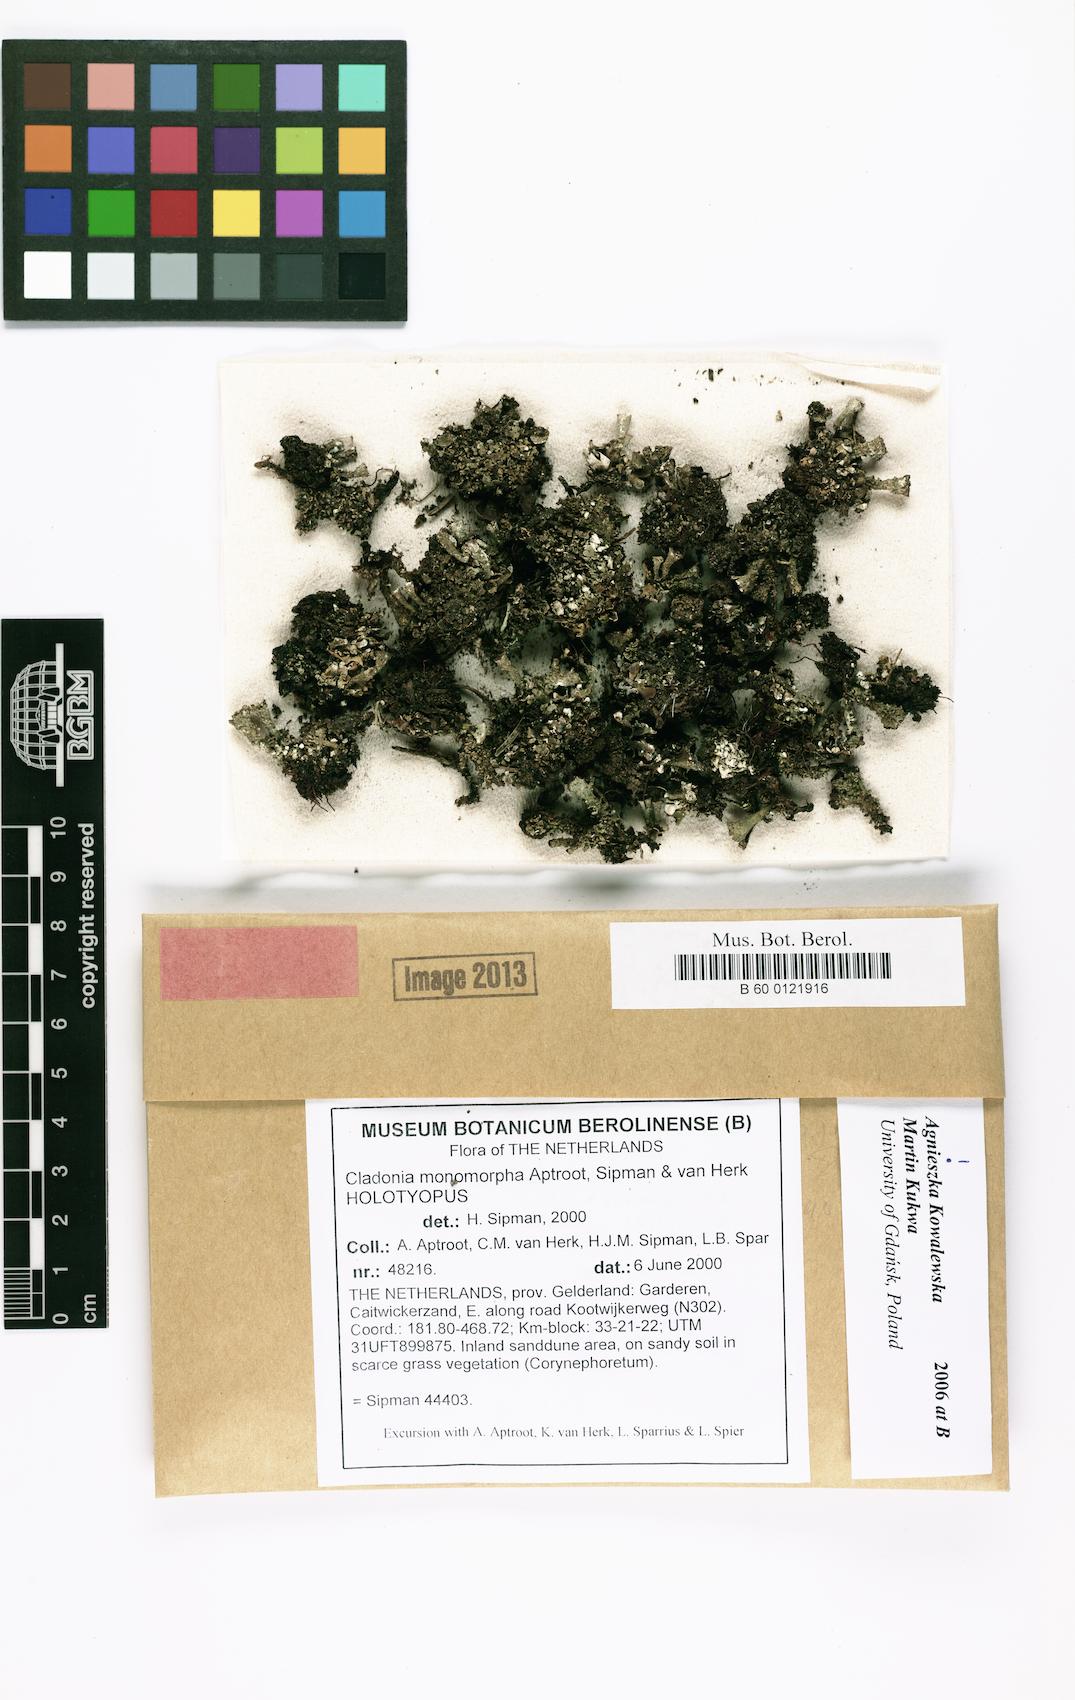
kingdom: Fungi
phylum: Ascomycota
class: Lecanoromycetes
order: Lecanorales
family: Cladoniaceae
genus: Cladonia
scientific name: Cladonia monomorpha
